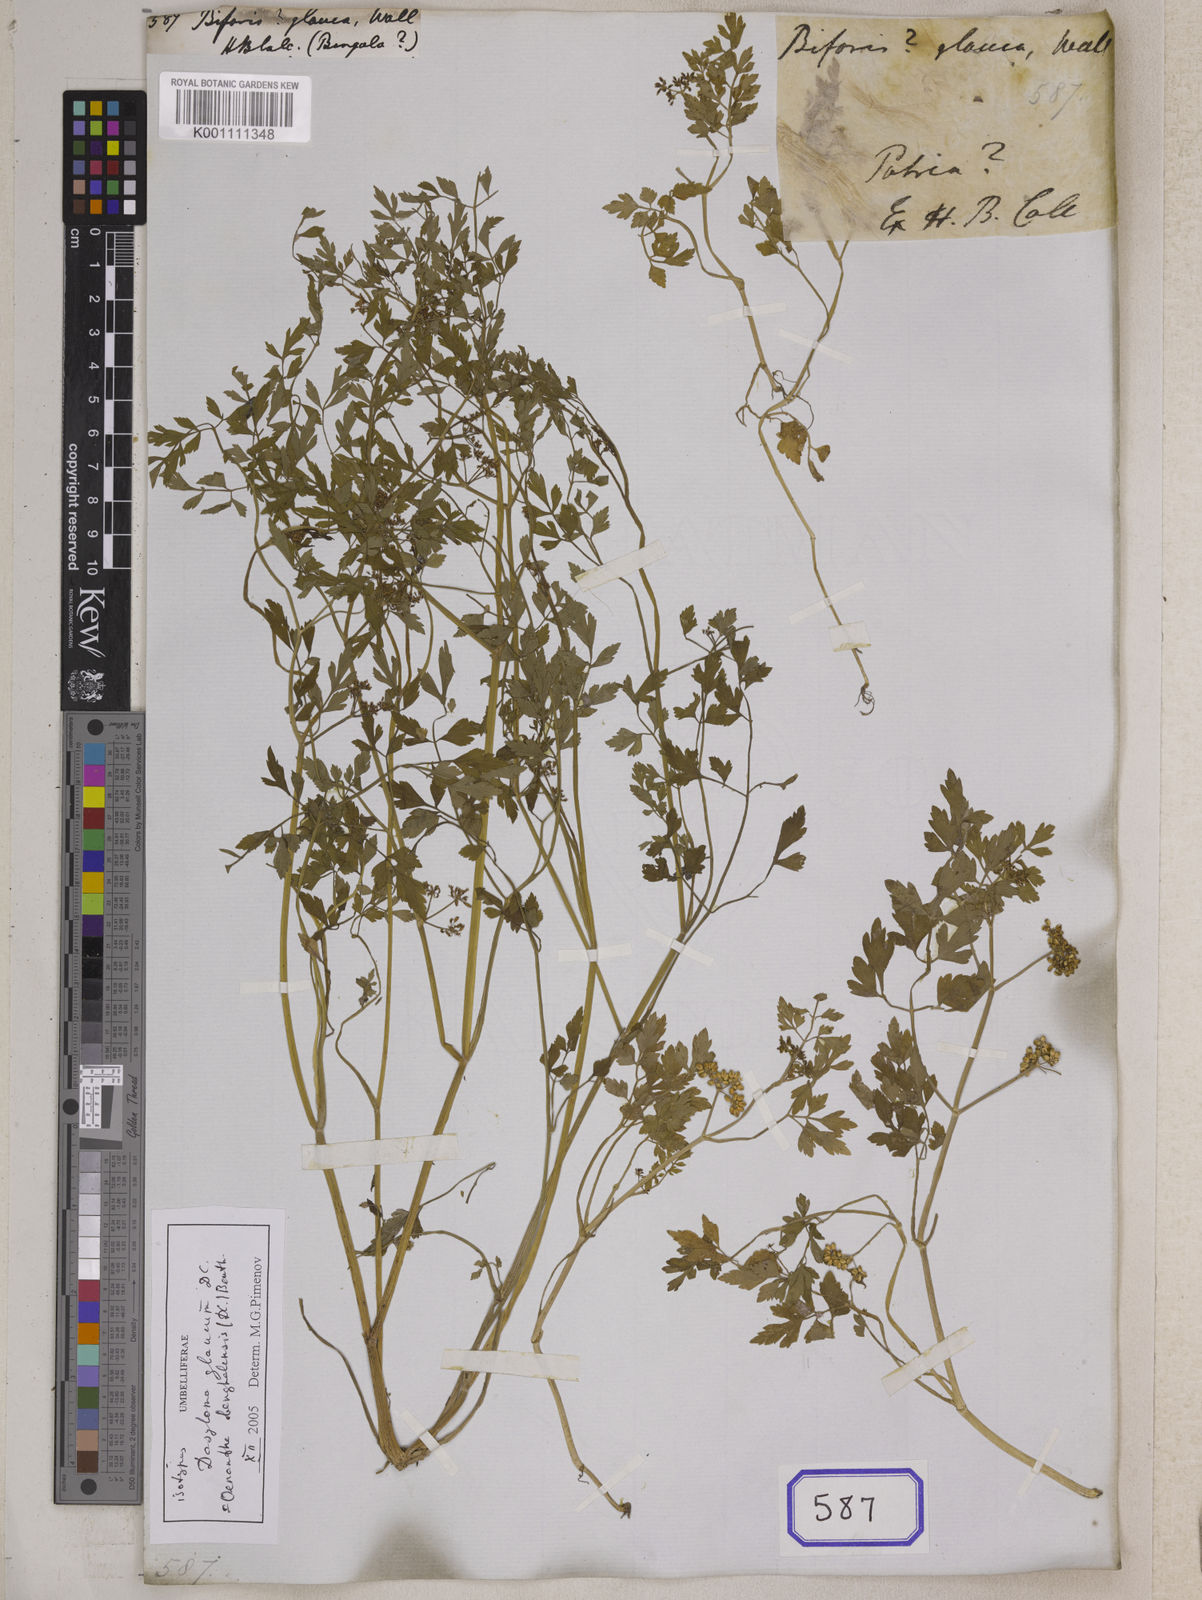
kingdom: Plantae
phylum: Tracheophyta
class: Magnoliopsida
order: Apiales
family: Apiaceae
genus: Oenanthe
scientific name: Oenanthe javanica
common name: Java water-dropwort
